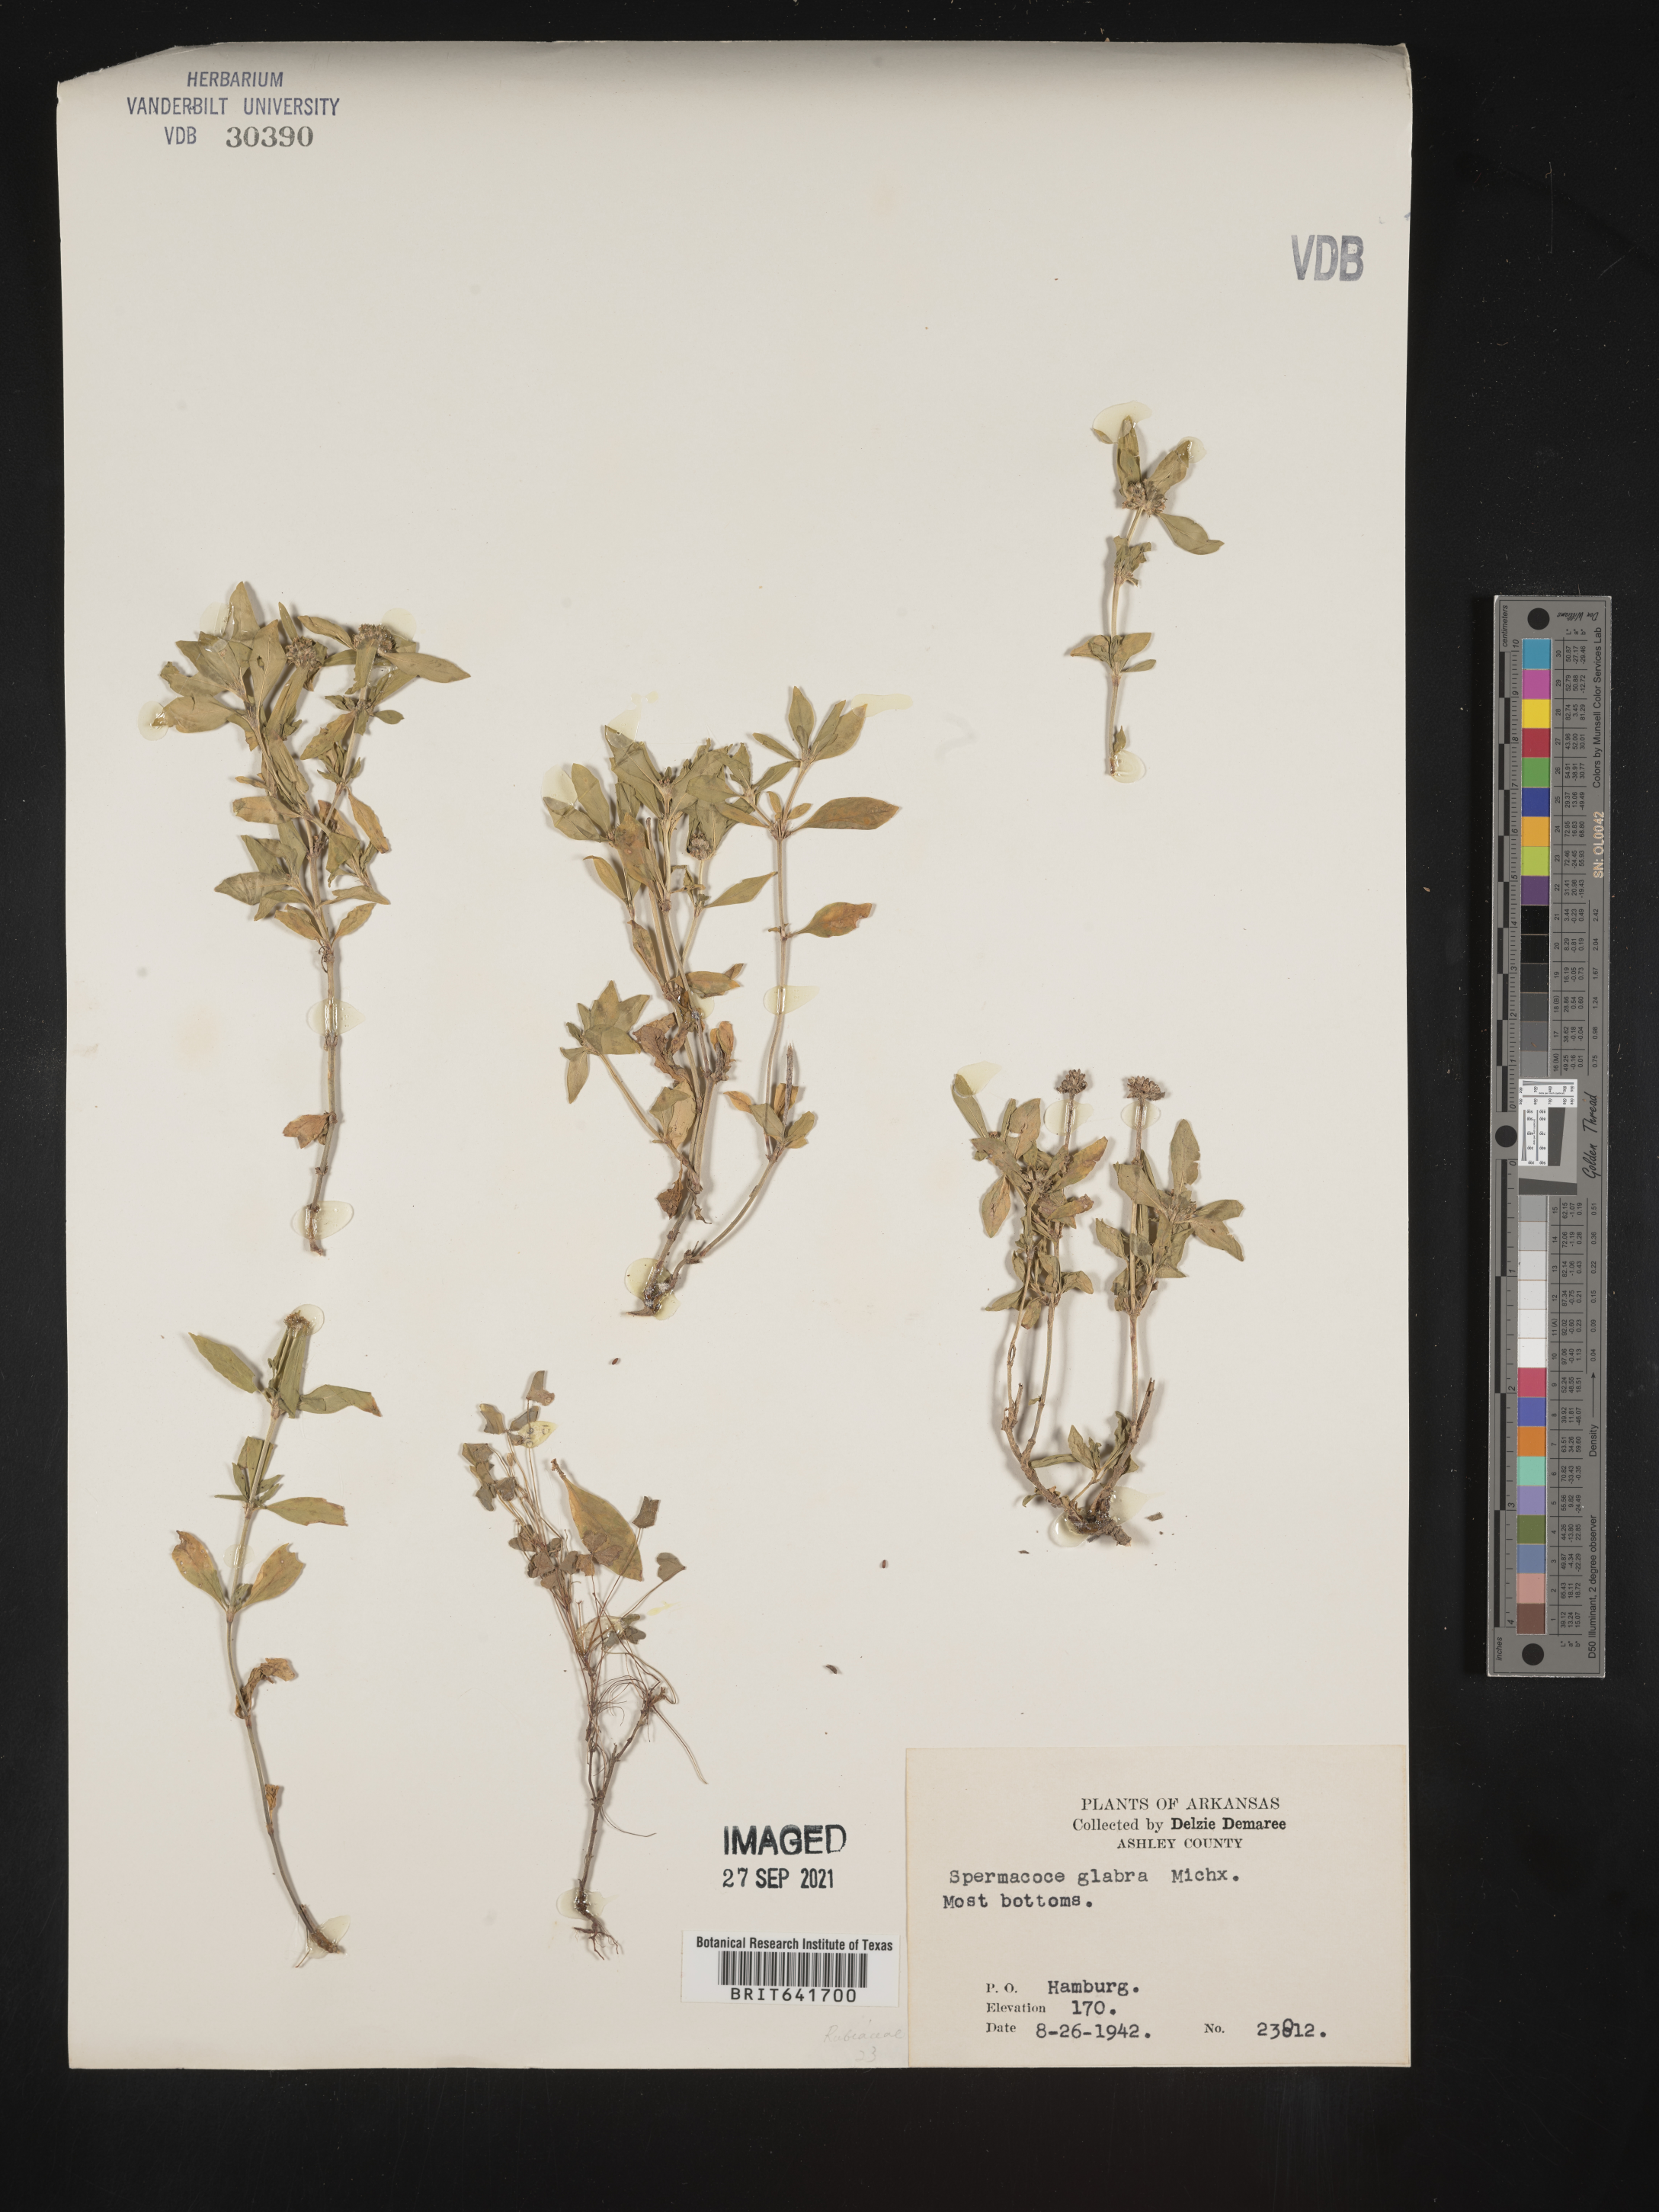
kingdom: Plantae
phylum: Tracheophyta
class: Magnoliopsida
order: Gentianales
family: Rubiaceae
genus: Spermacoce
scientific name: Spermacoce glabra
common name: Smooth buttonweed
